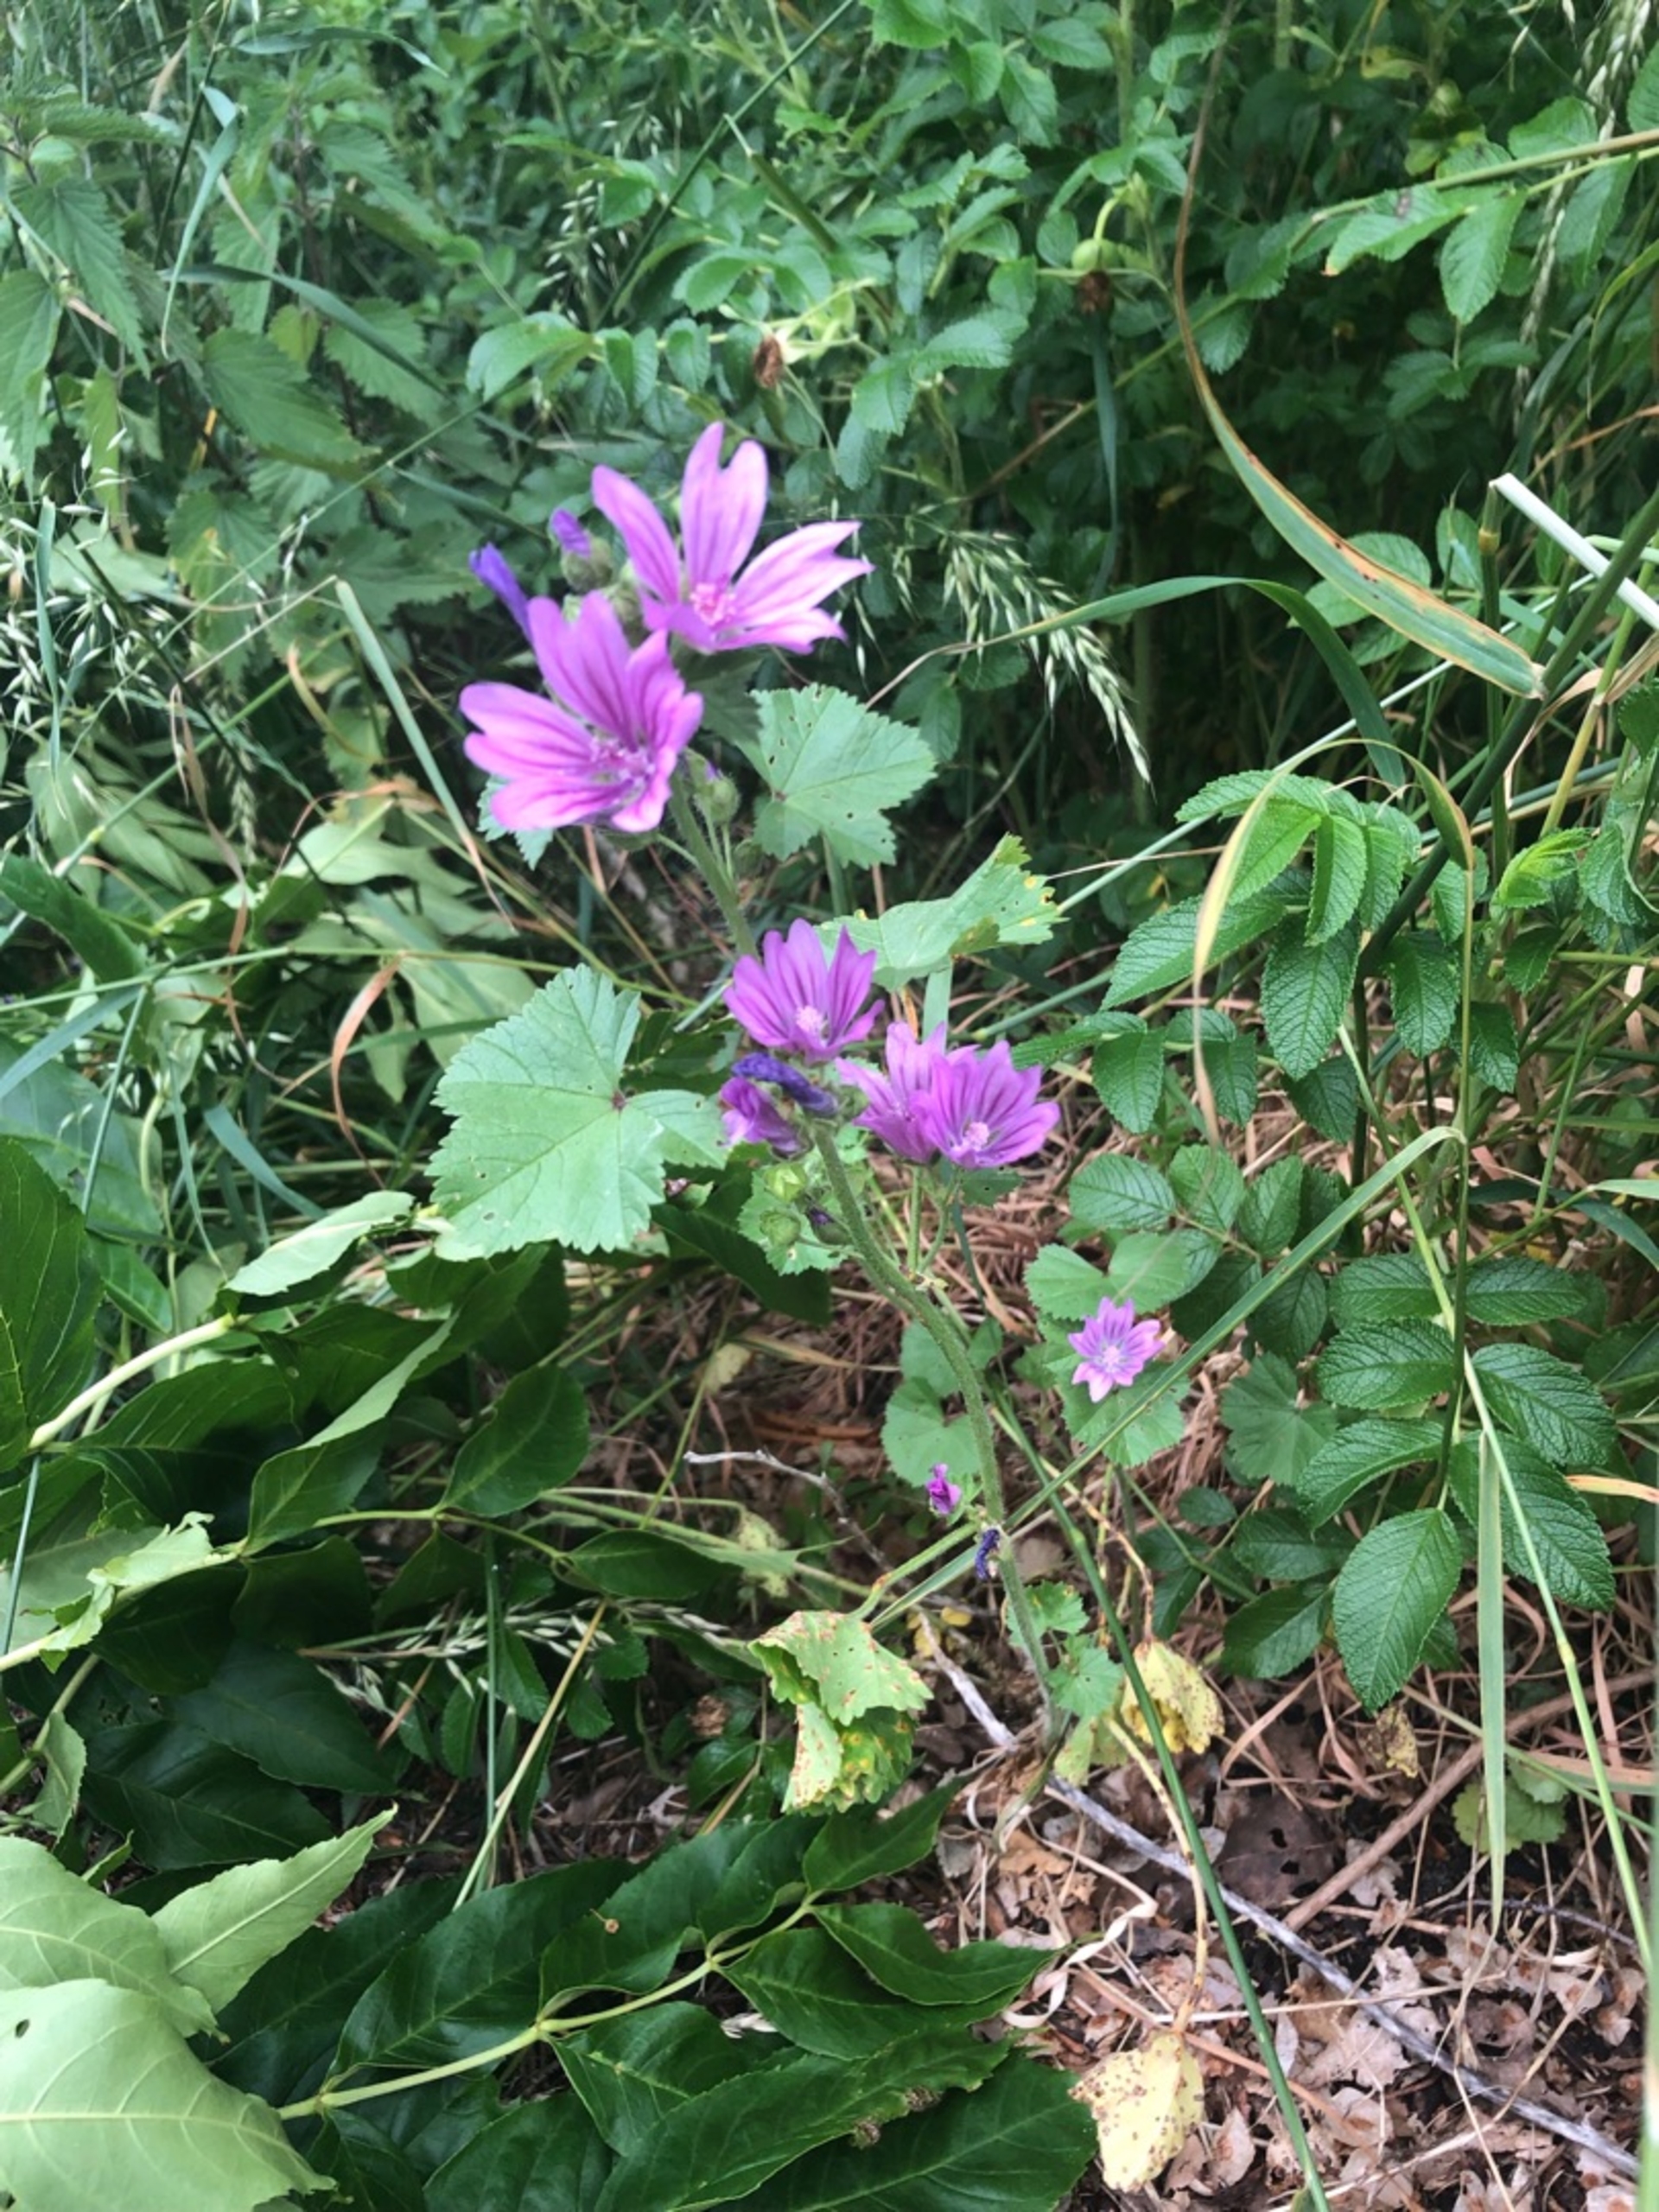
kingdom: Plantae
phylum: Tracheophyta
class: Magnoliopsida
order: Malvales
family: Malvaceae
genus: Malva
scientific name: Malva sylvestris
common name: Almindelig katost
